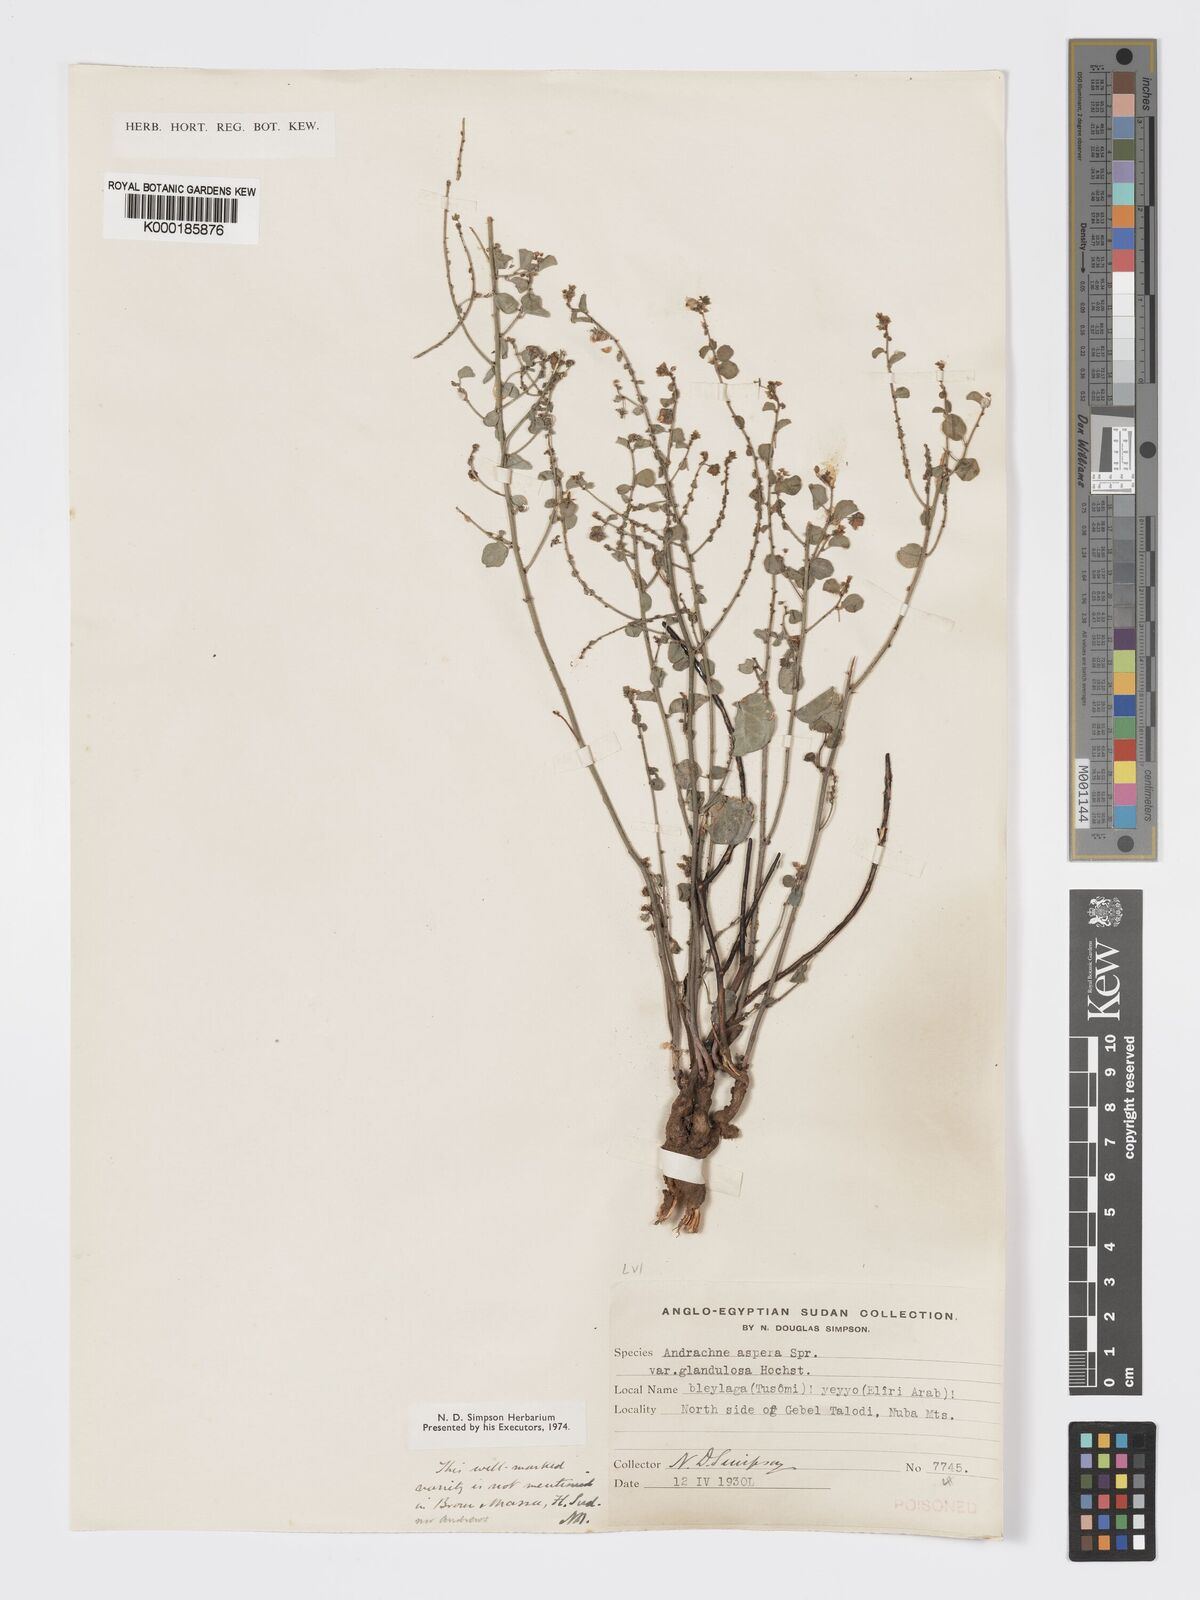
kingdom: Plantae
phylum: Tracheophyta
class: Magnoliopsida
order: Malpighiales
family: Phyllanthaceae
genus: Andrachne
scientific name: Andrachne aspera
